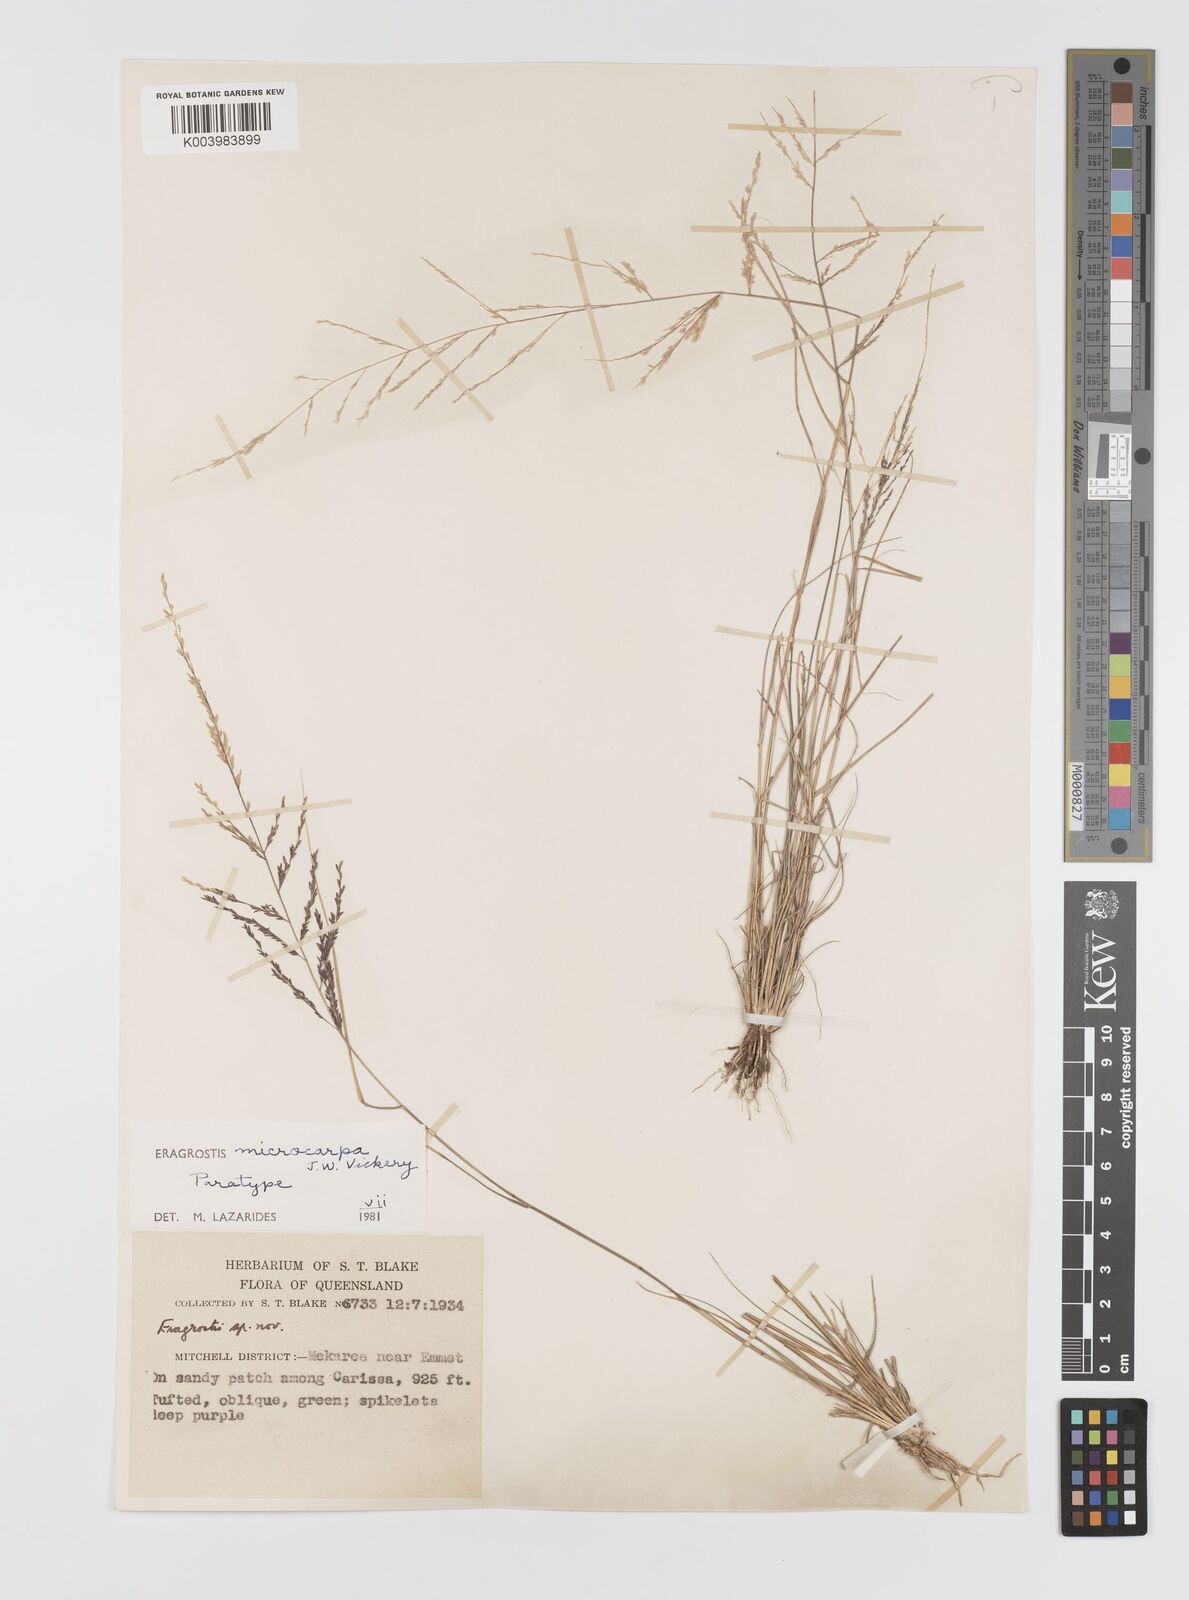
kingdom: Plantae
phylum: Tracheophyta
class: Liliopsida
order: Poales
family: Poaceae
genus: Eragrostis
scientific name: Eragrostis microcarpa
